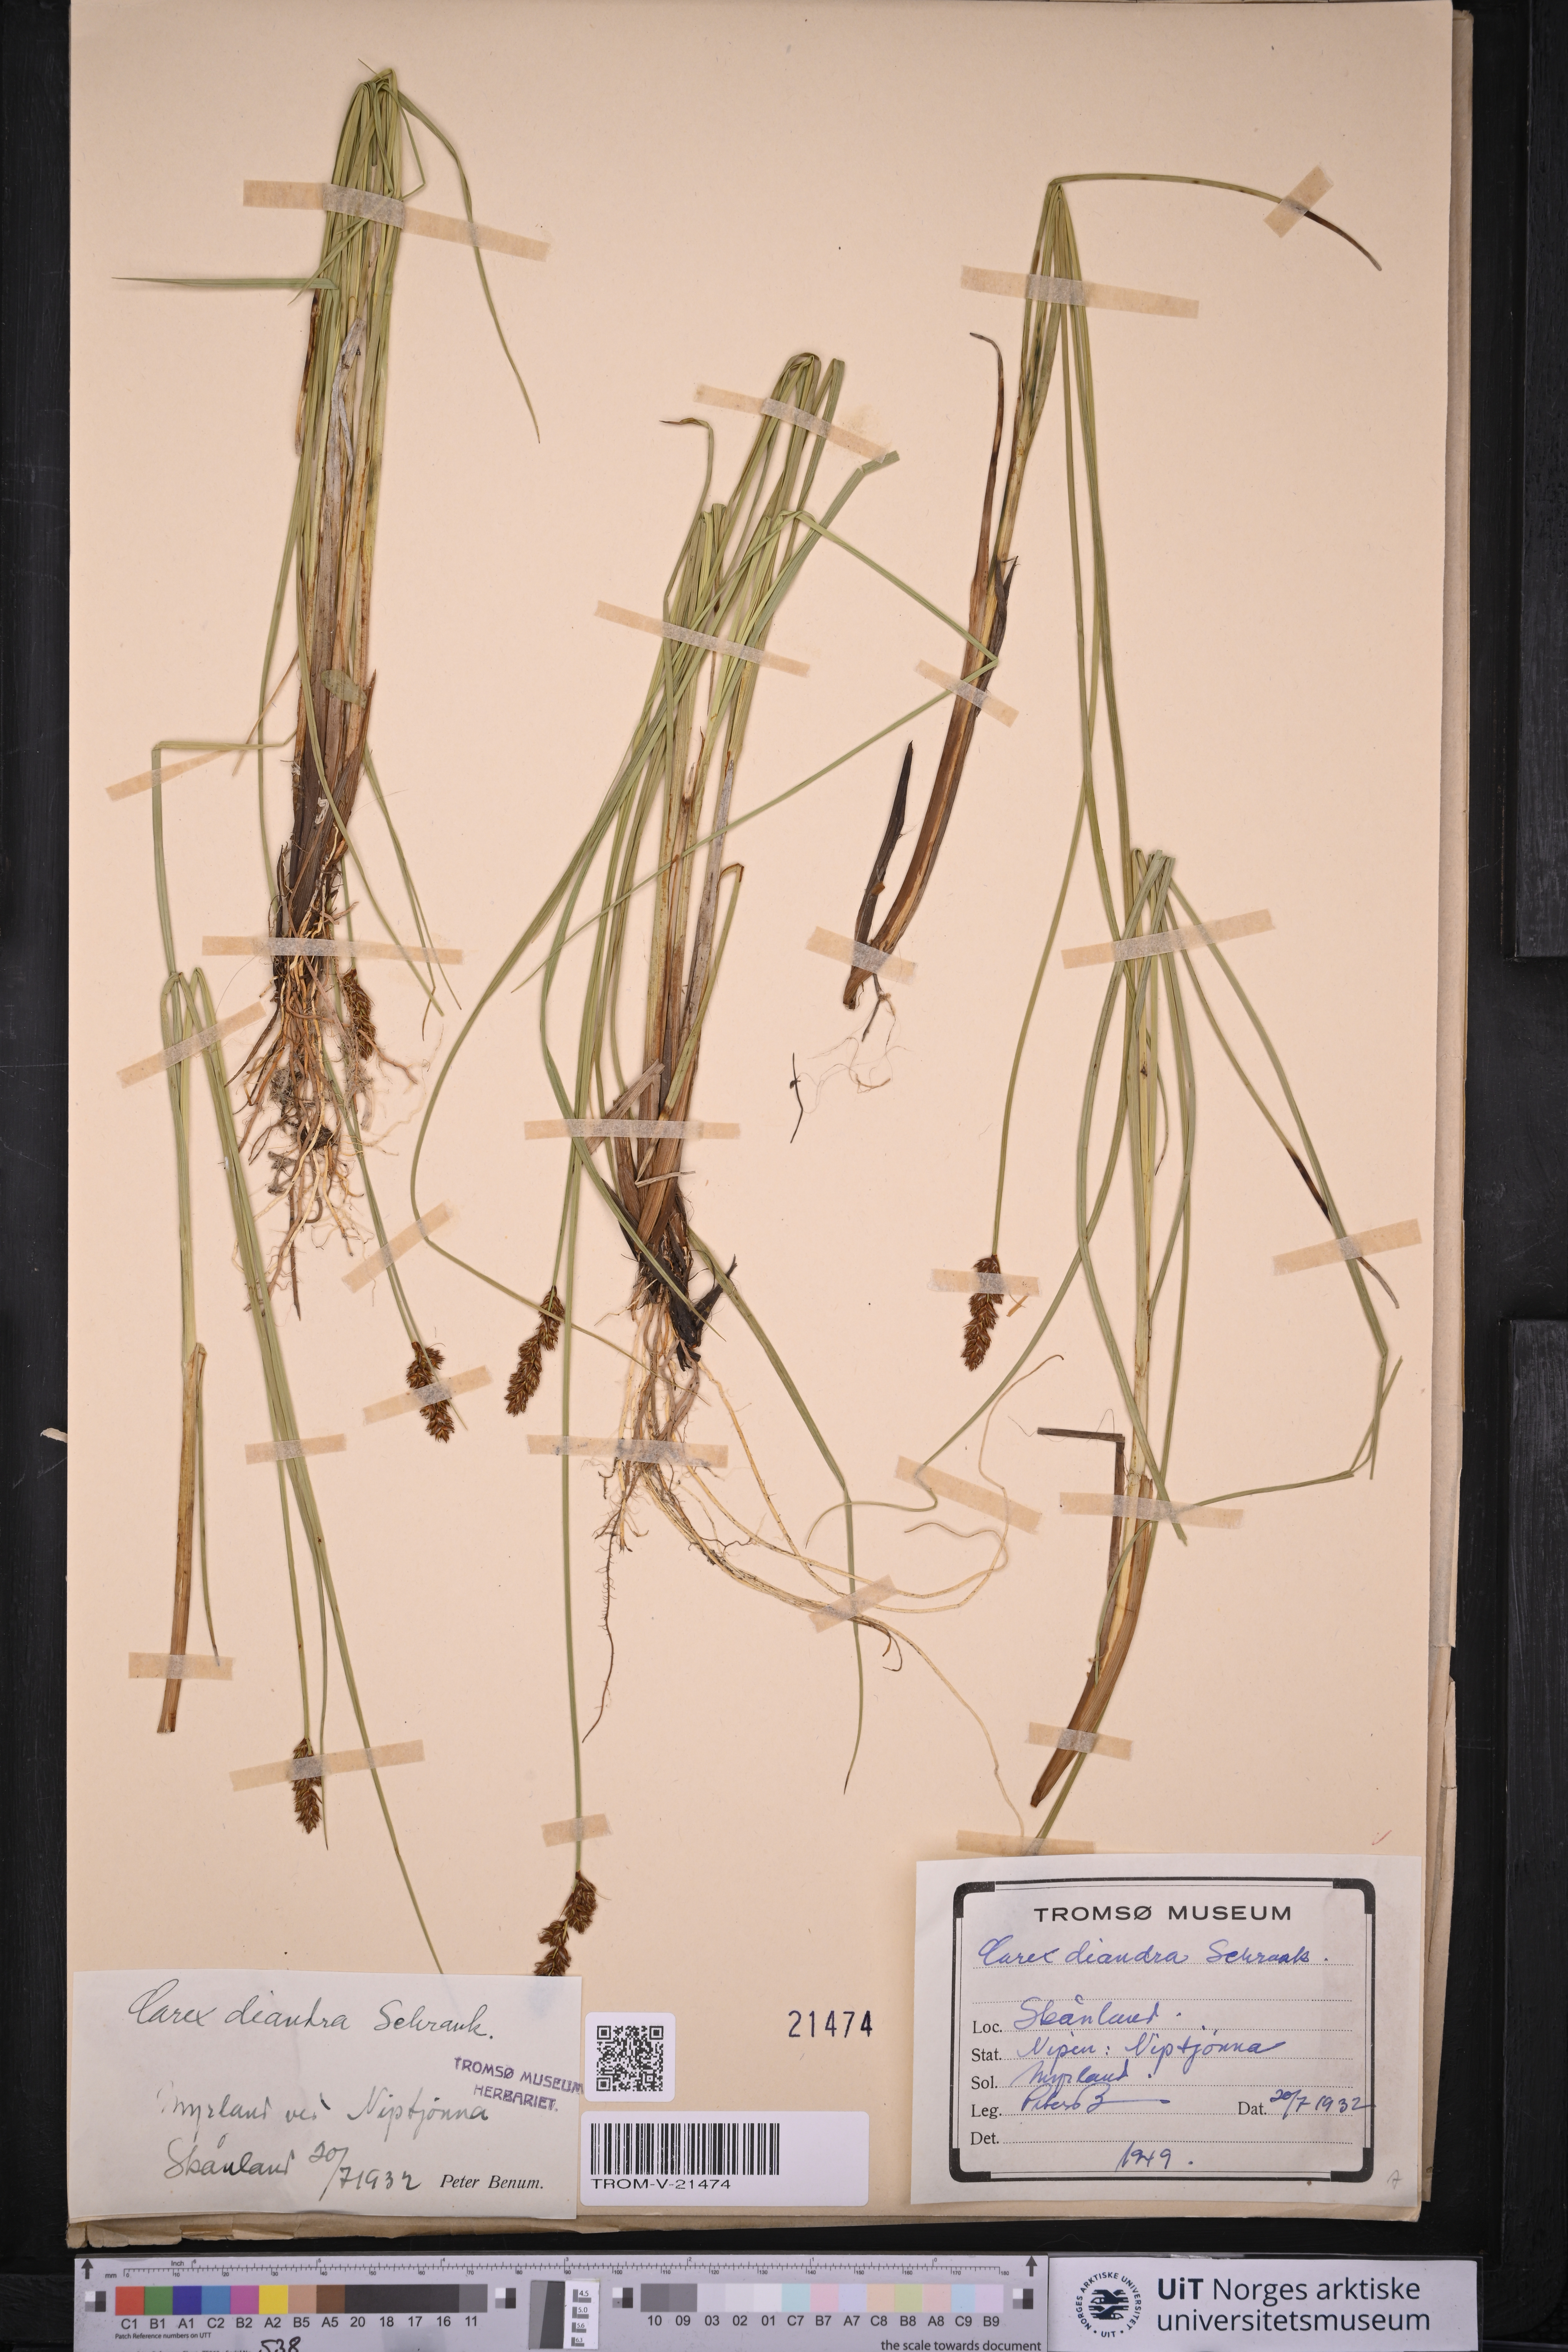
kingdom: Plantae
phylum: Tracheophyta
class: Liliopsida
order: Poales
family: Cyperaceae
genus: Carex
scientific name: Carex diandra
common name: Lesser tussock-sedge
